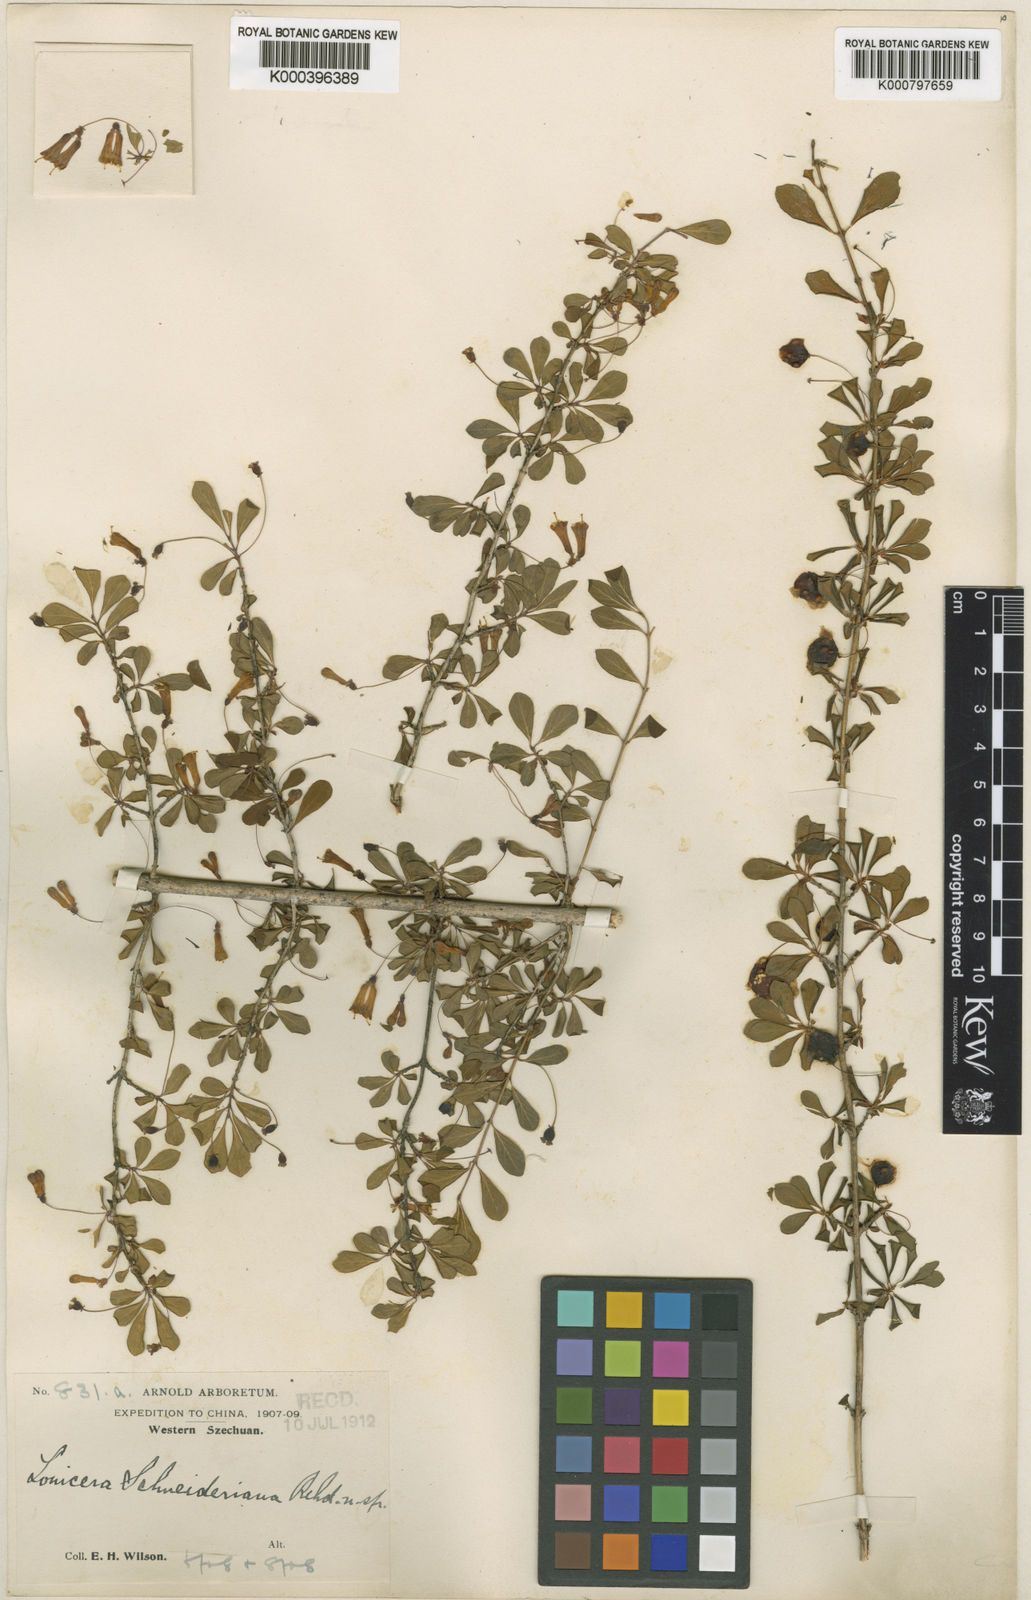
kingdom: Plantae
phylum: Tracheophyta
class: Magnoliopsida
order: Dipsacales
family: Caprifoliaceae
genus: Lonicera
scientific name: Lonicera tangutica
